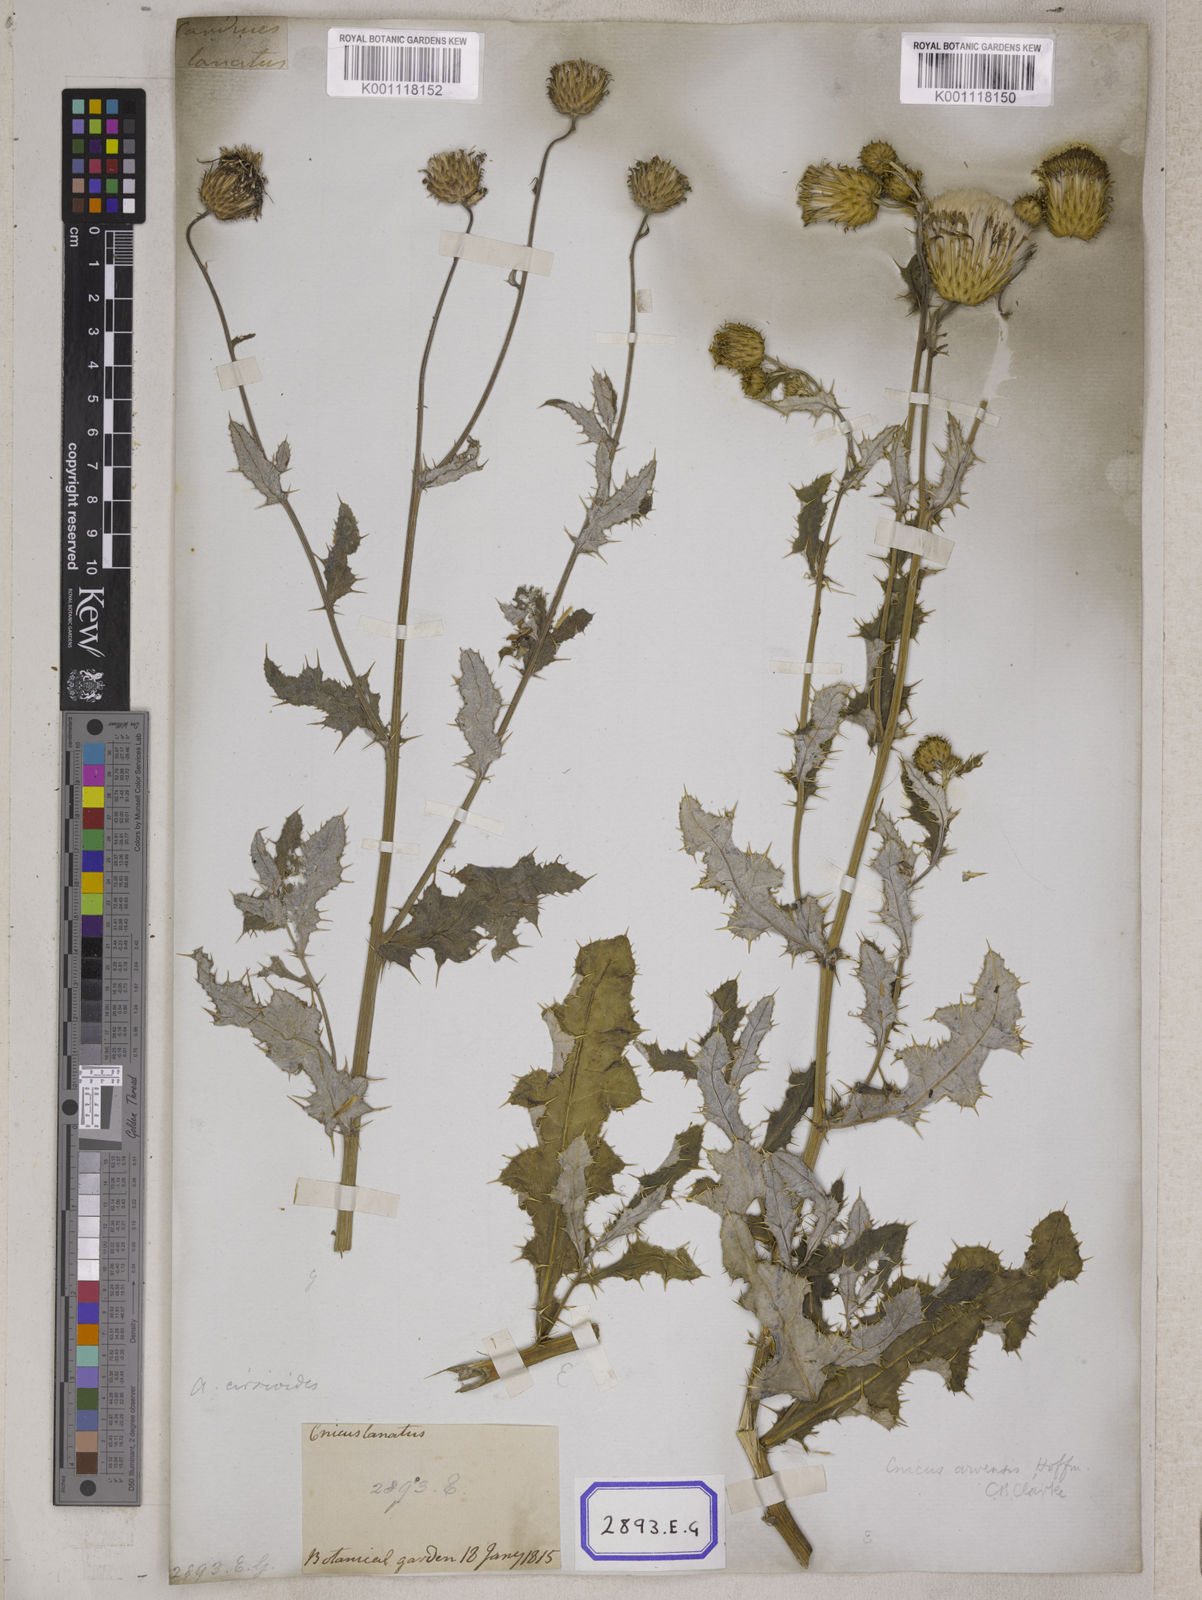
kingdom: Plantae
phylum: Tracheophyta
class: Magnoliopsida
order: Asterales
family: Asteraceae
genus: Jurinea
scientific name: Jurinea heteromalla
